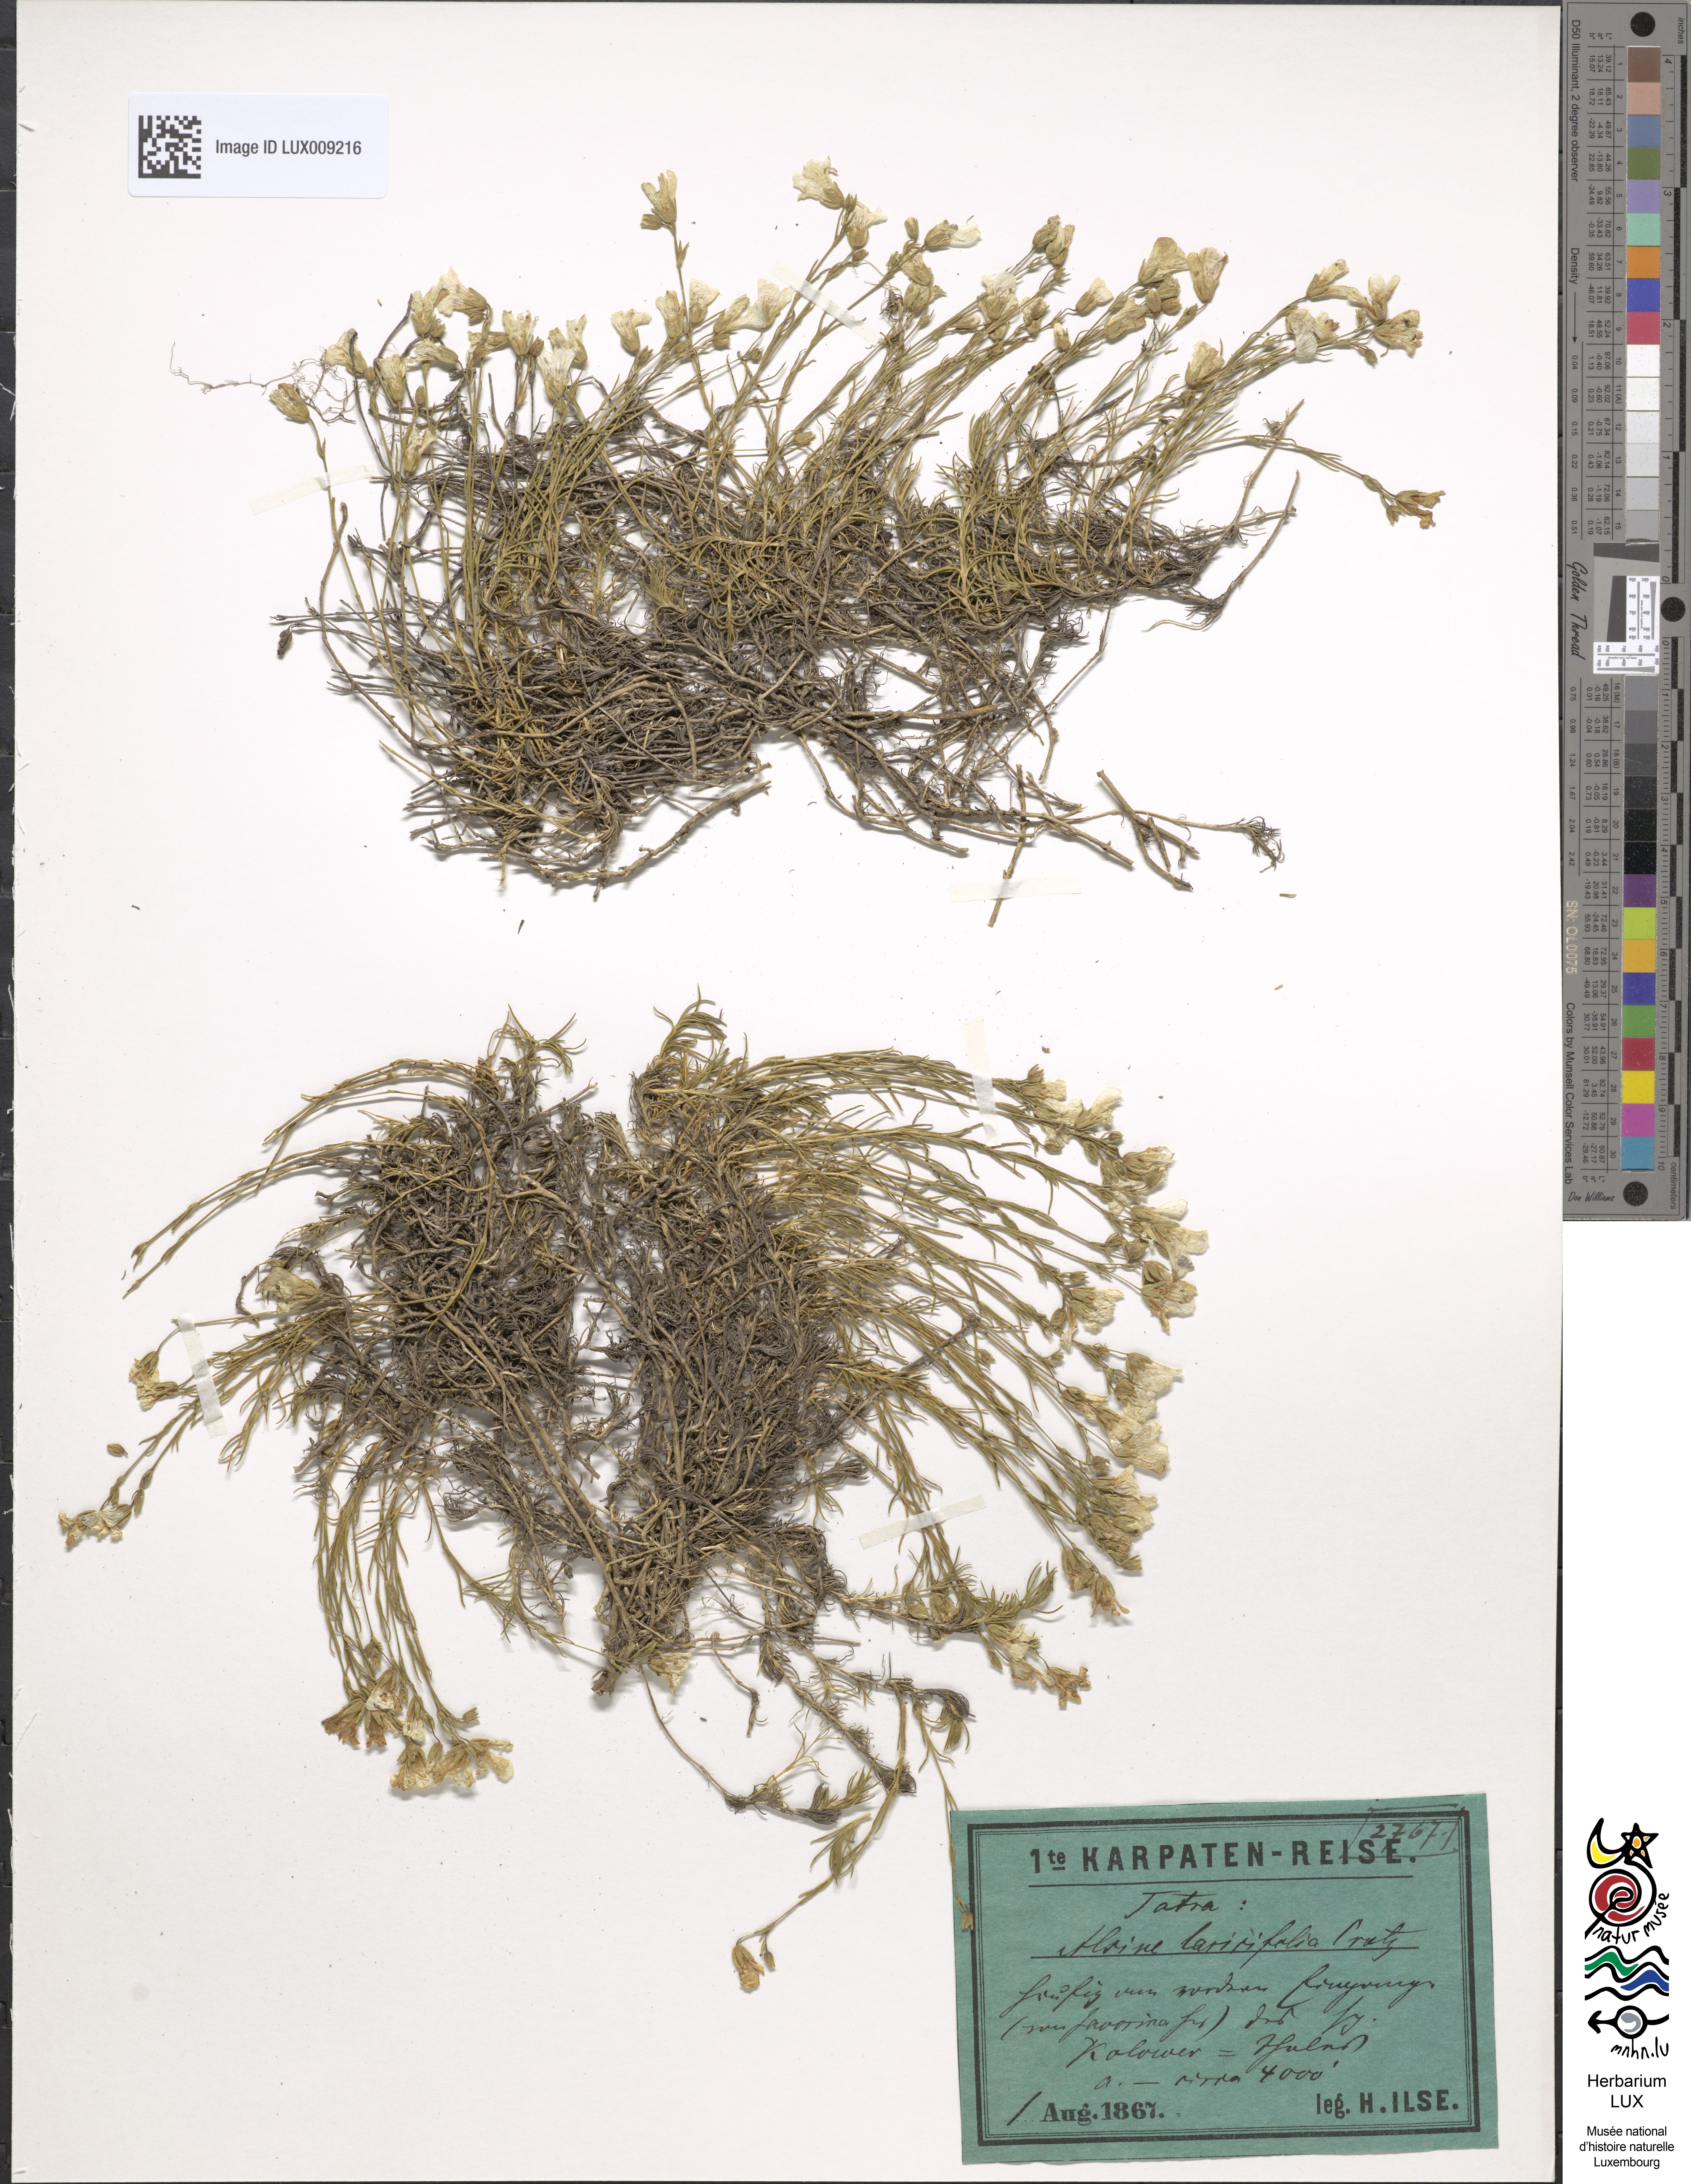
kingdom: Plantae
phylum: Tracheophyta
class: Magnoliopsida
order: Caryophyllales
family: Caryophyllaceae
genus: Cherleria
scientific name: Cherleria laricifolia
